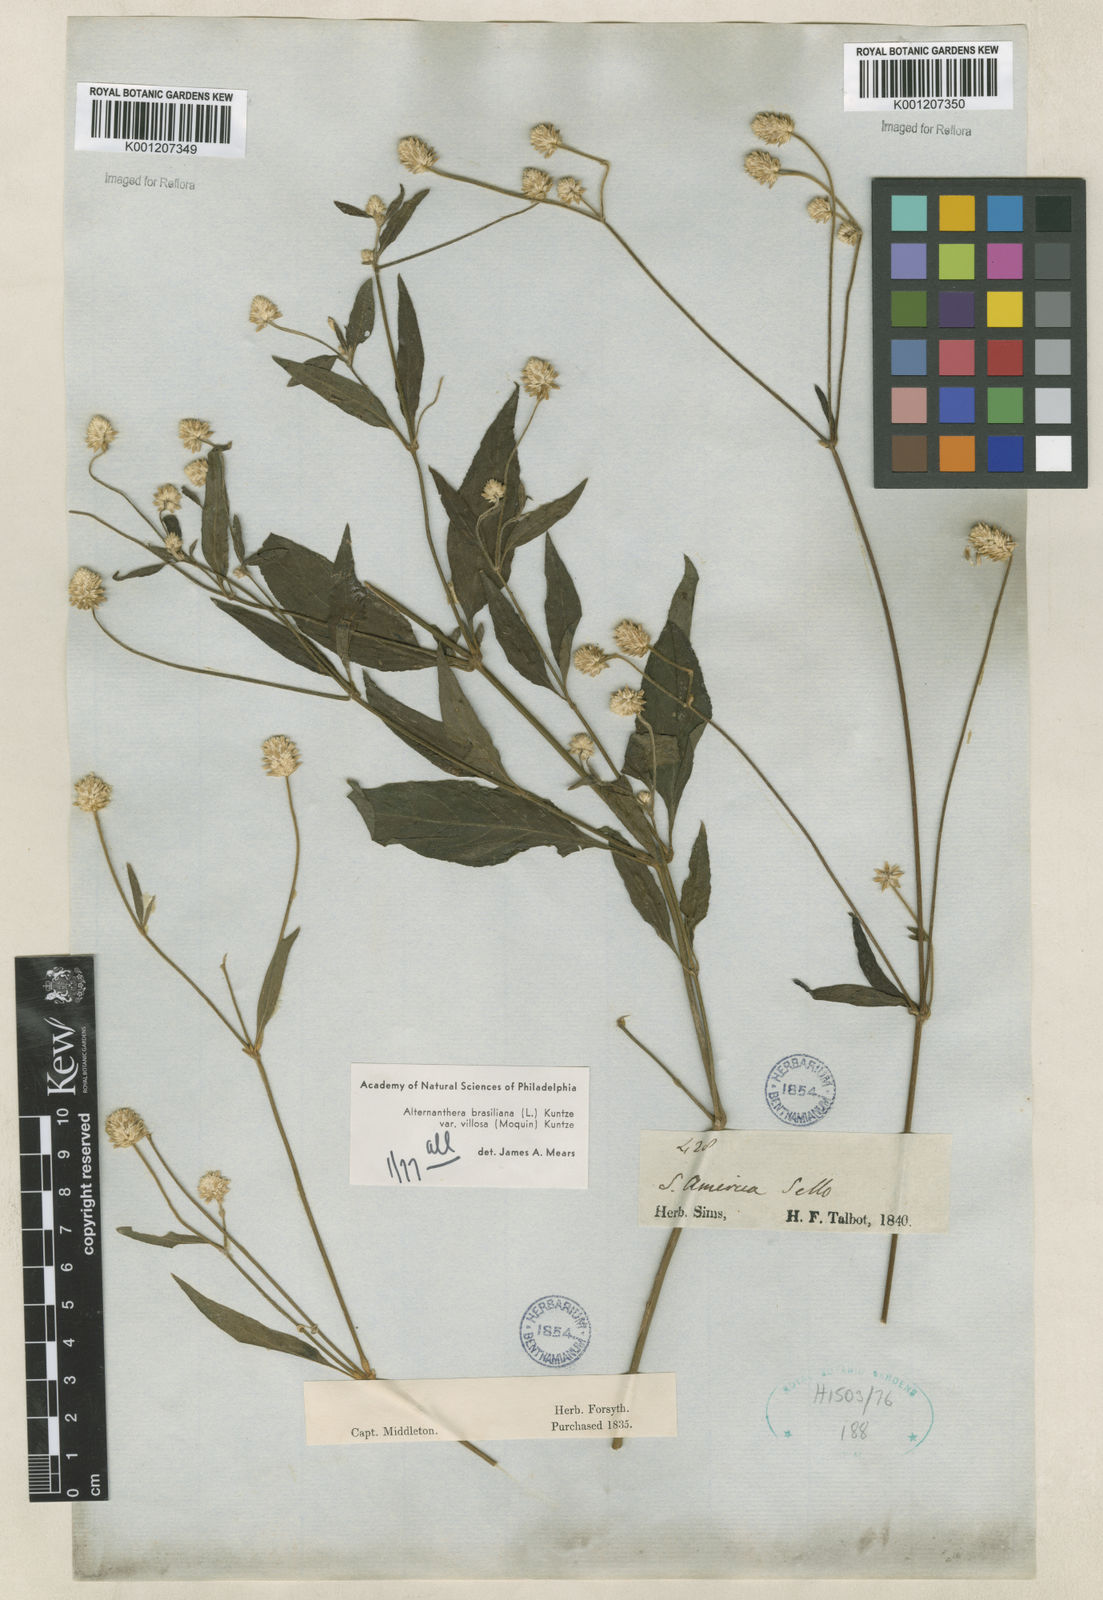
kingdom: Plantae
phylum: Tracheophyta
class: Magnoliopsida
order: Caryophyllales
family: Amaranthaceae
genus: Alternanthera
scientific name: Alternanthera ramosissima
